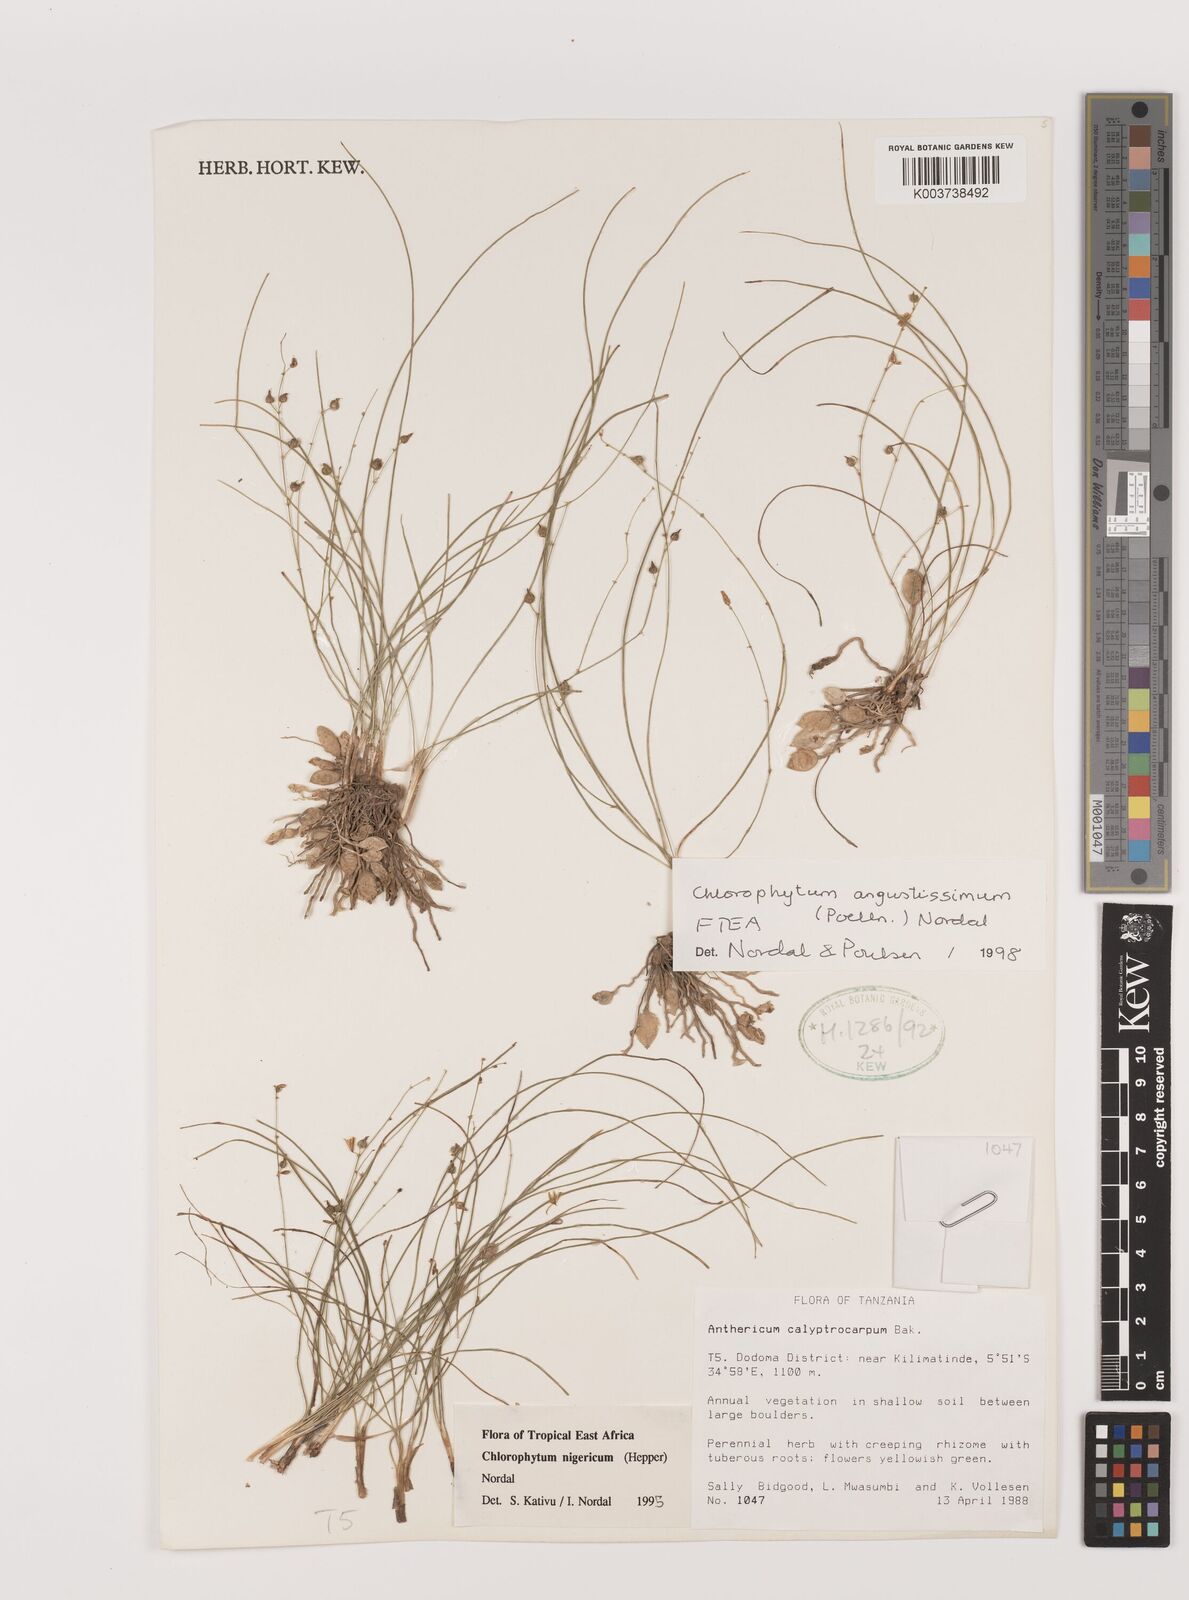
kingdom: Plantae
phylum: Tracheophyta
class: Liliopsida
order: Asparagales
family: Asparagaceae
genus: Chlorophytum
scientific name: Chlorophytum angustissimum
